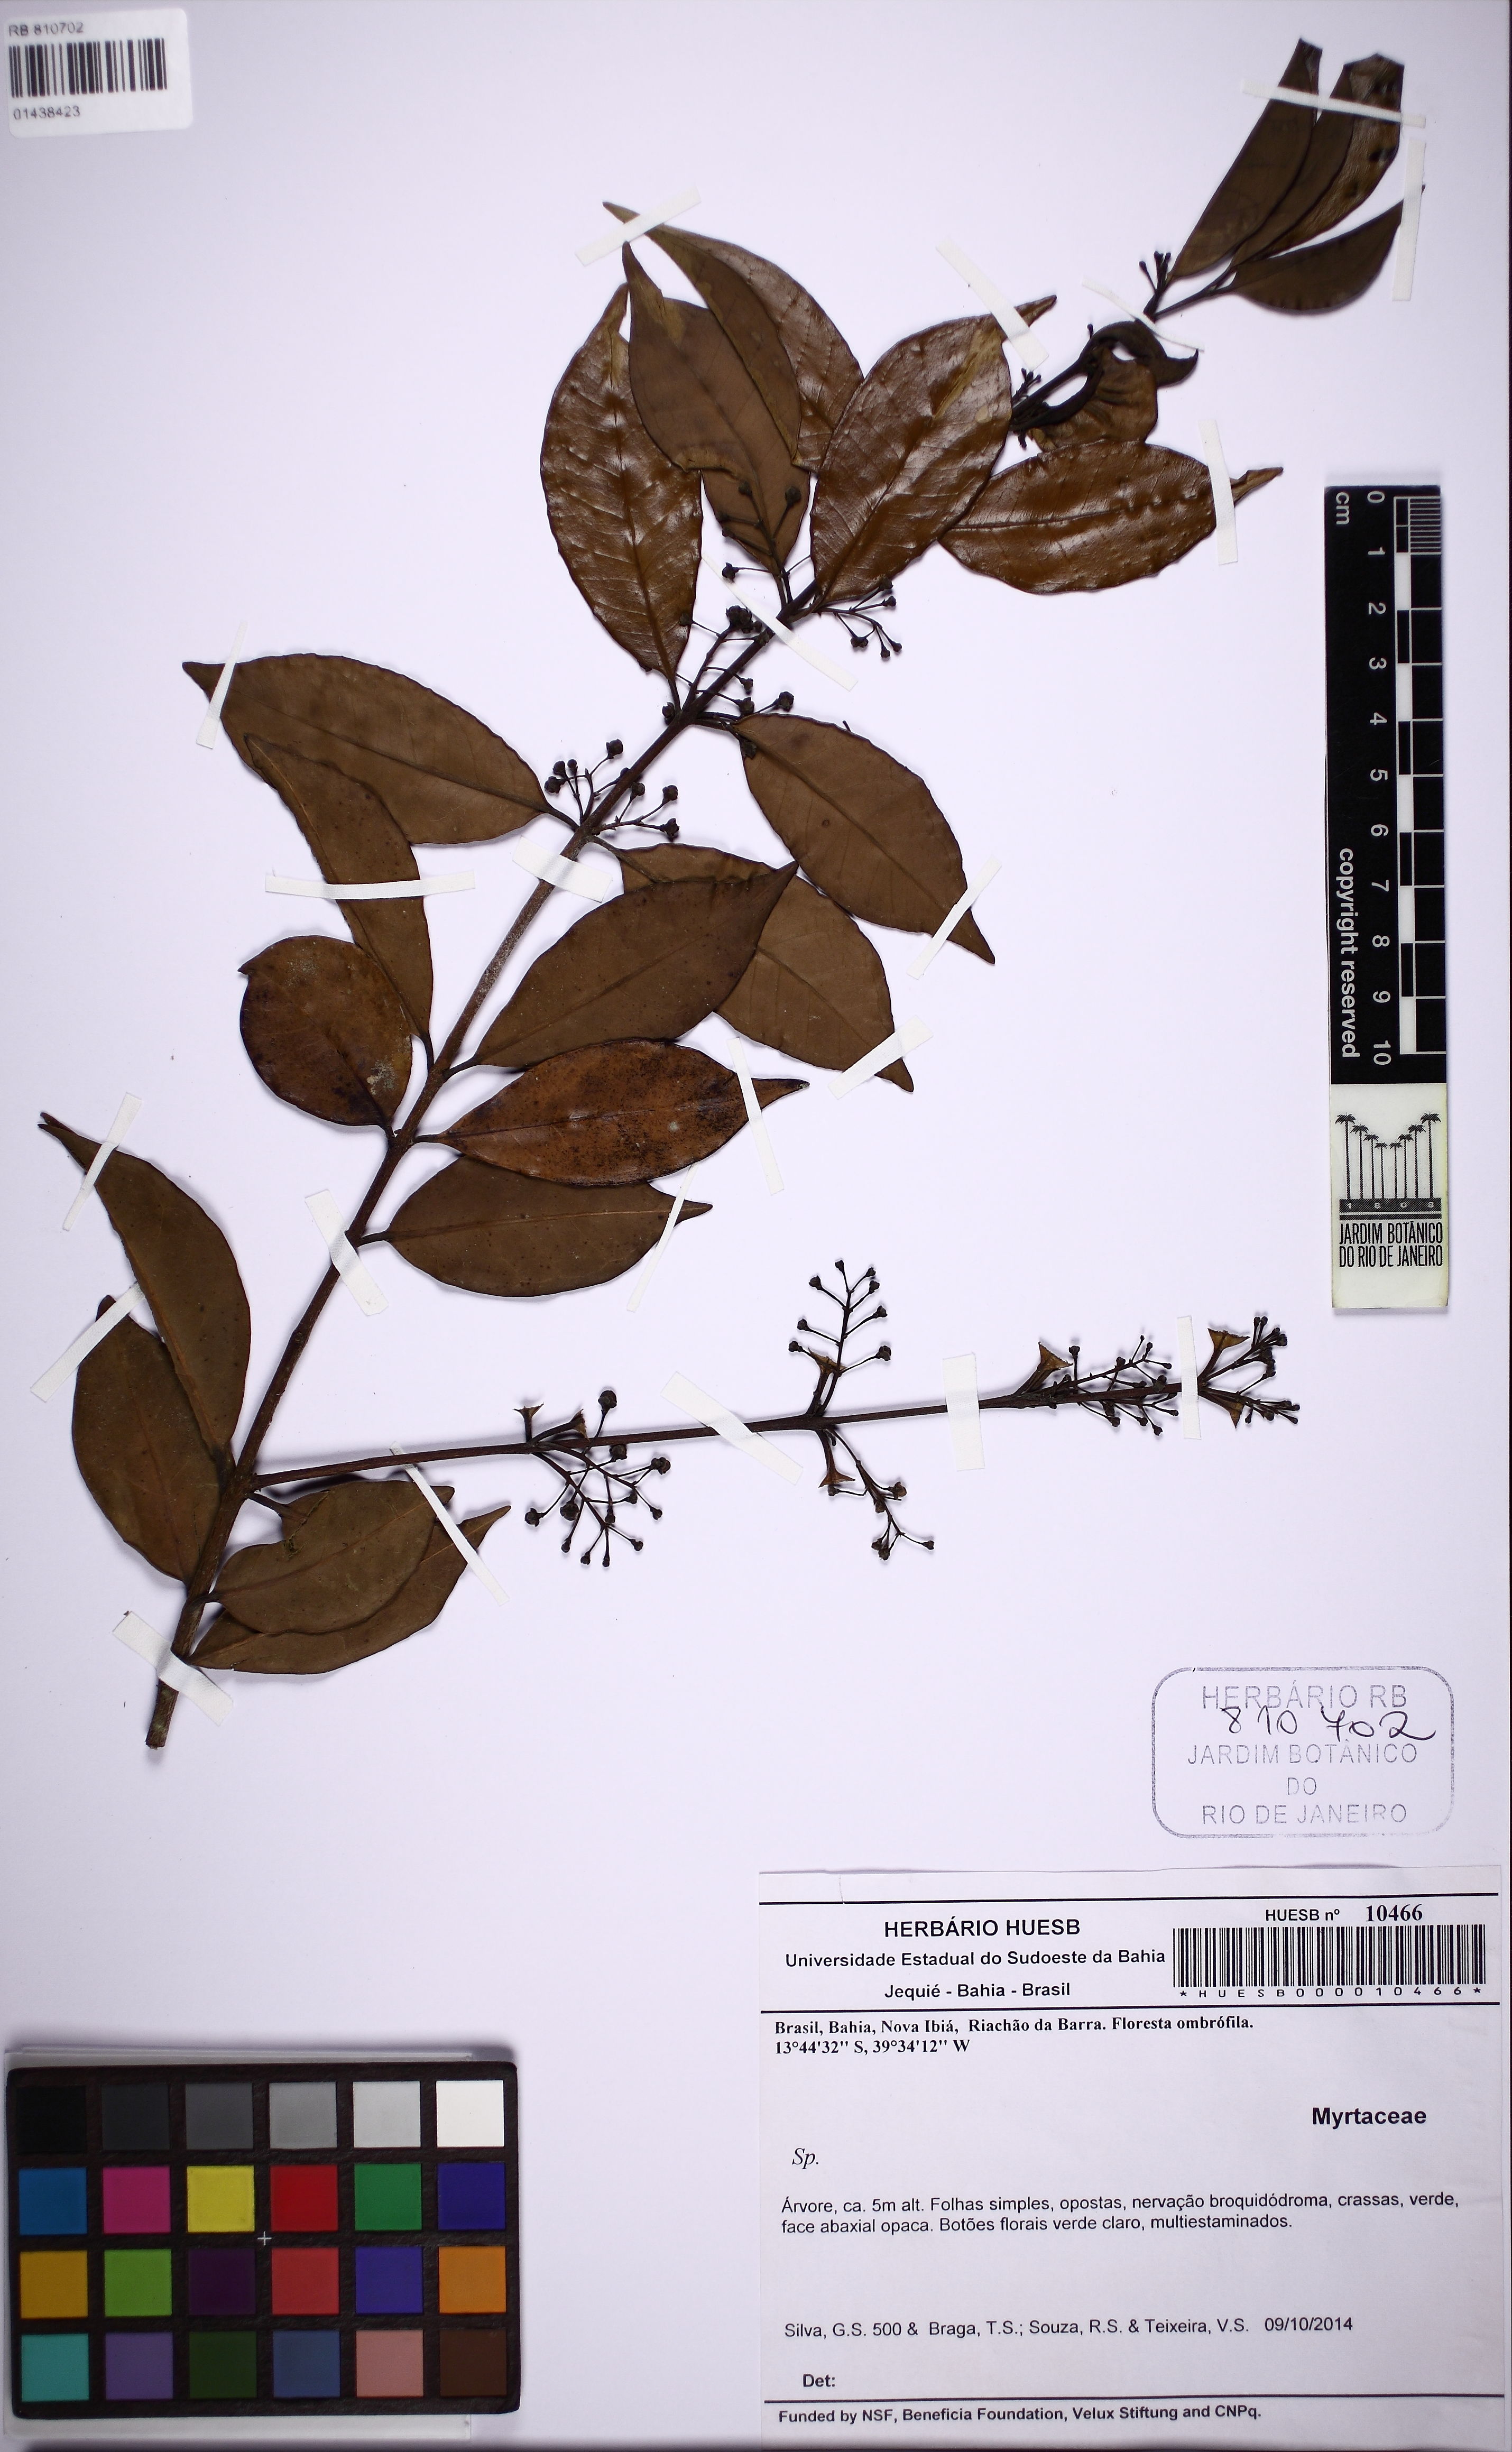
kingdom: Plantae
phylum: Tracheophyta
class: Magnoliopsida
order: Myrtales
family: Myrtaceae
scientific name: Myrtaceae
